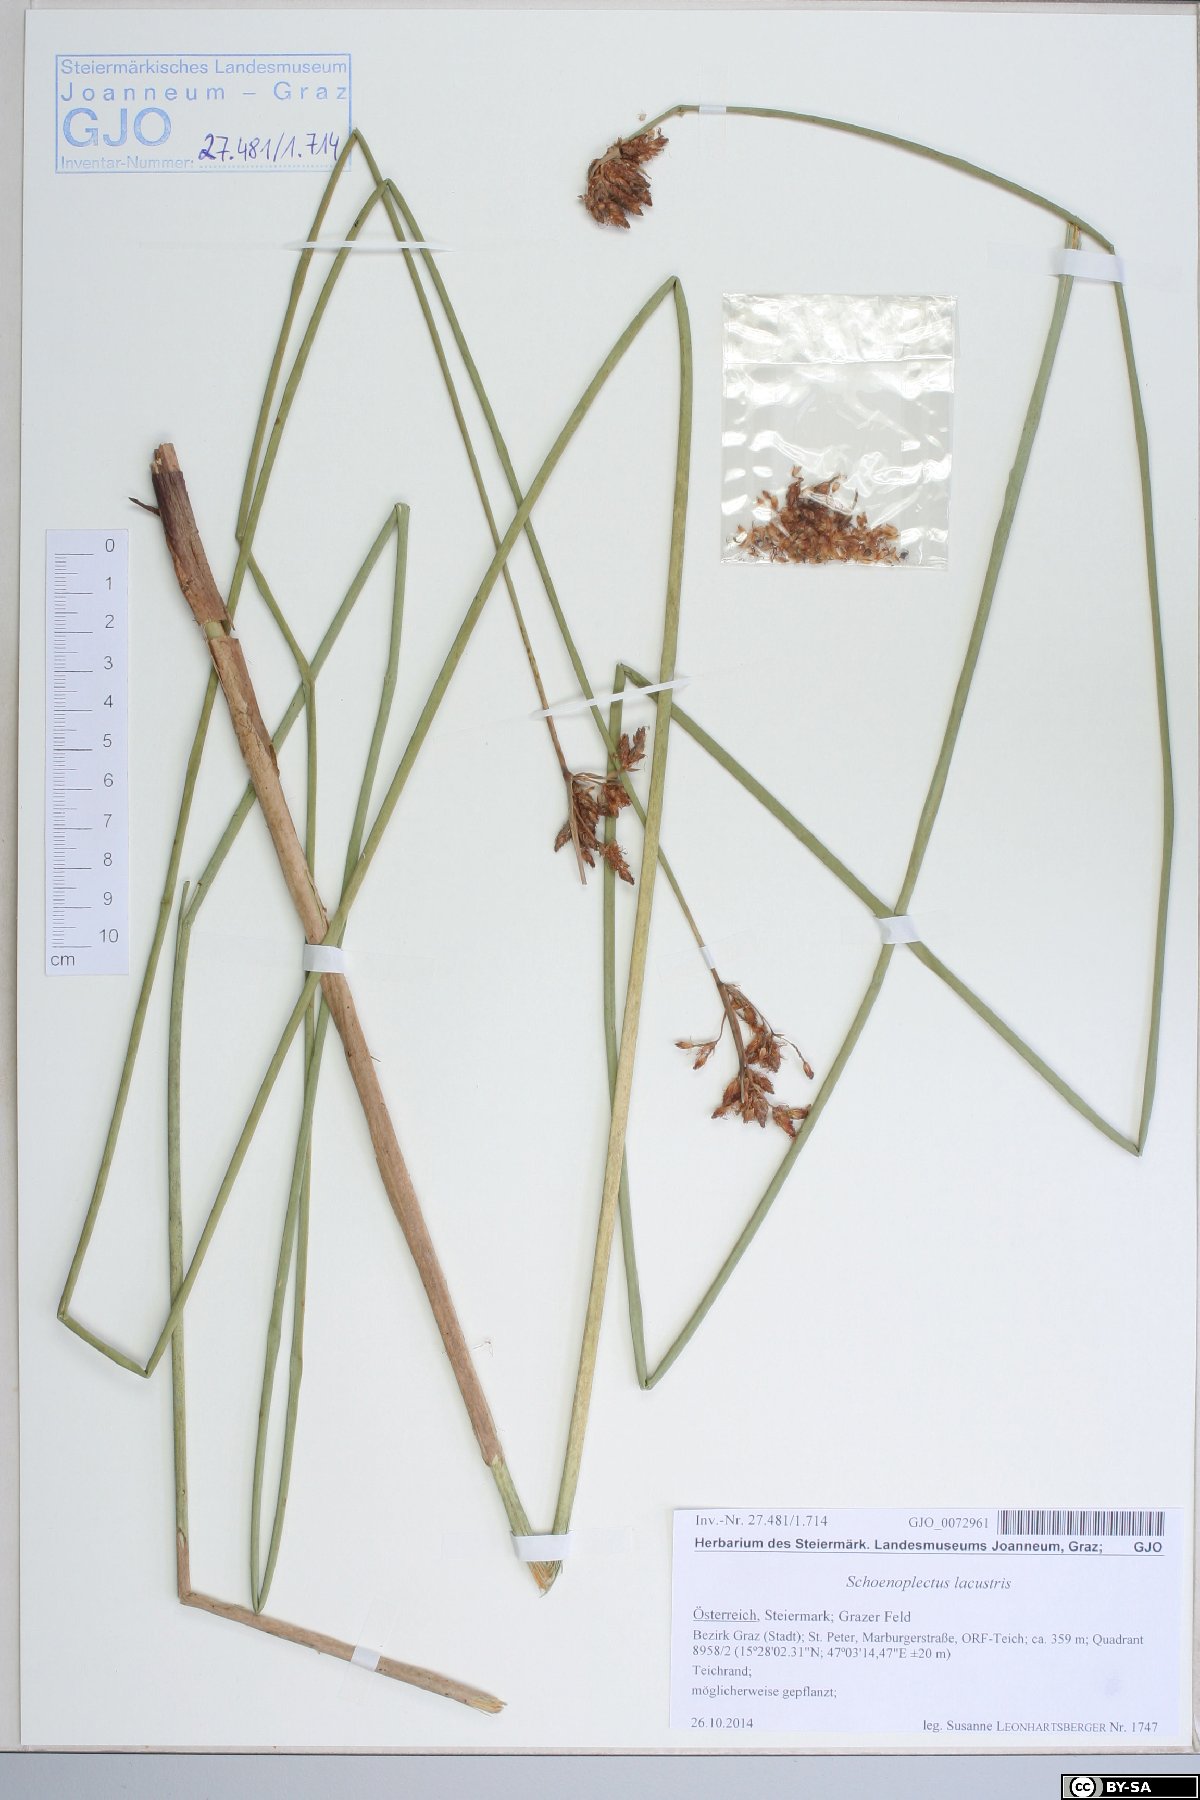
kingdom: Plantae
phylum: Tracheophyta
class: Liliopsida
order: Poales
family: Cyperaceae
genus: Schoenoplectus
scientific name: Schoenoplectus lacustris
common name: Common club-rush
